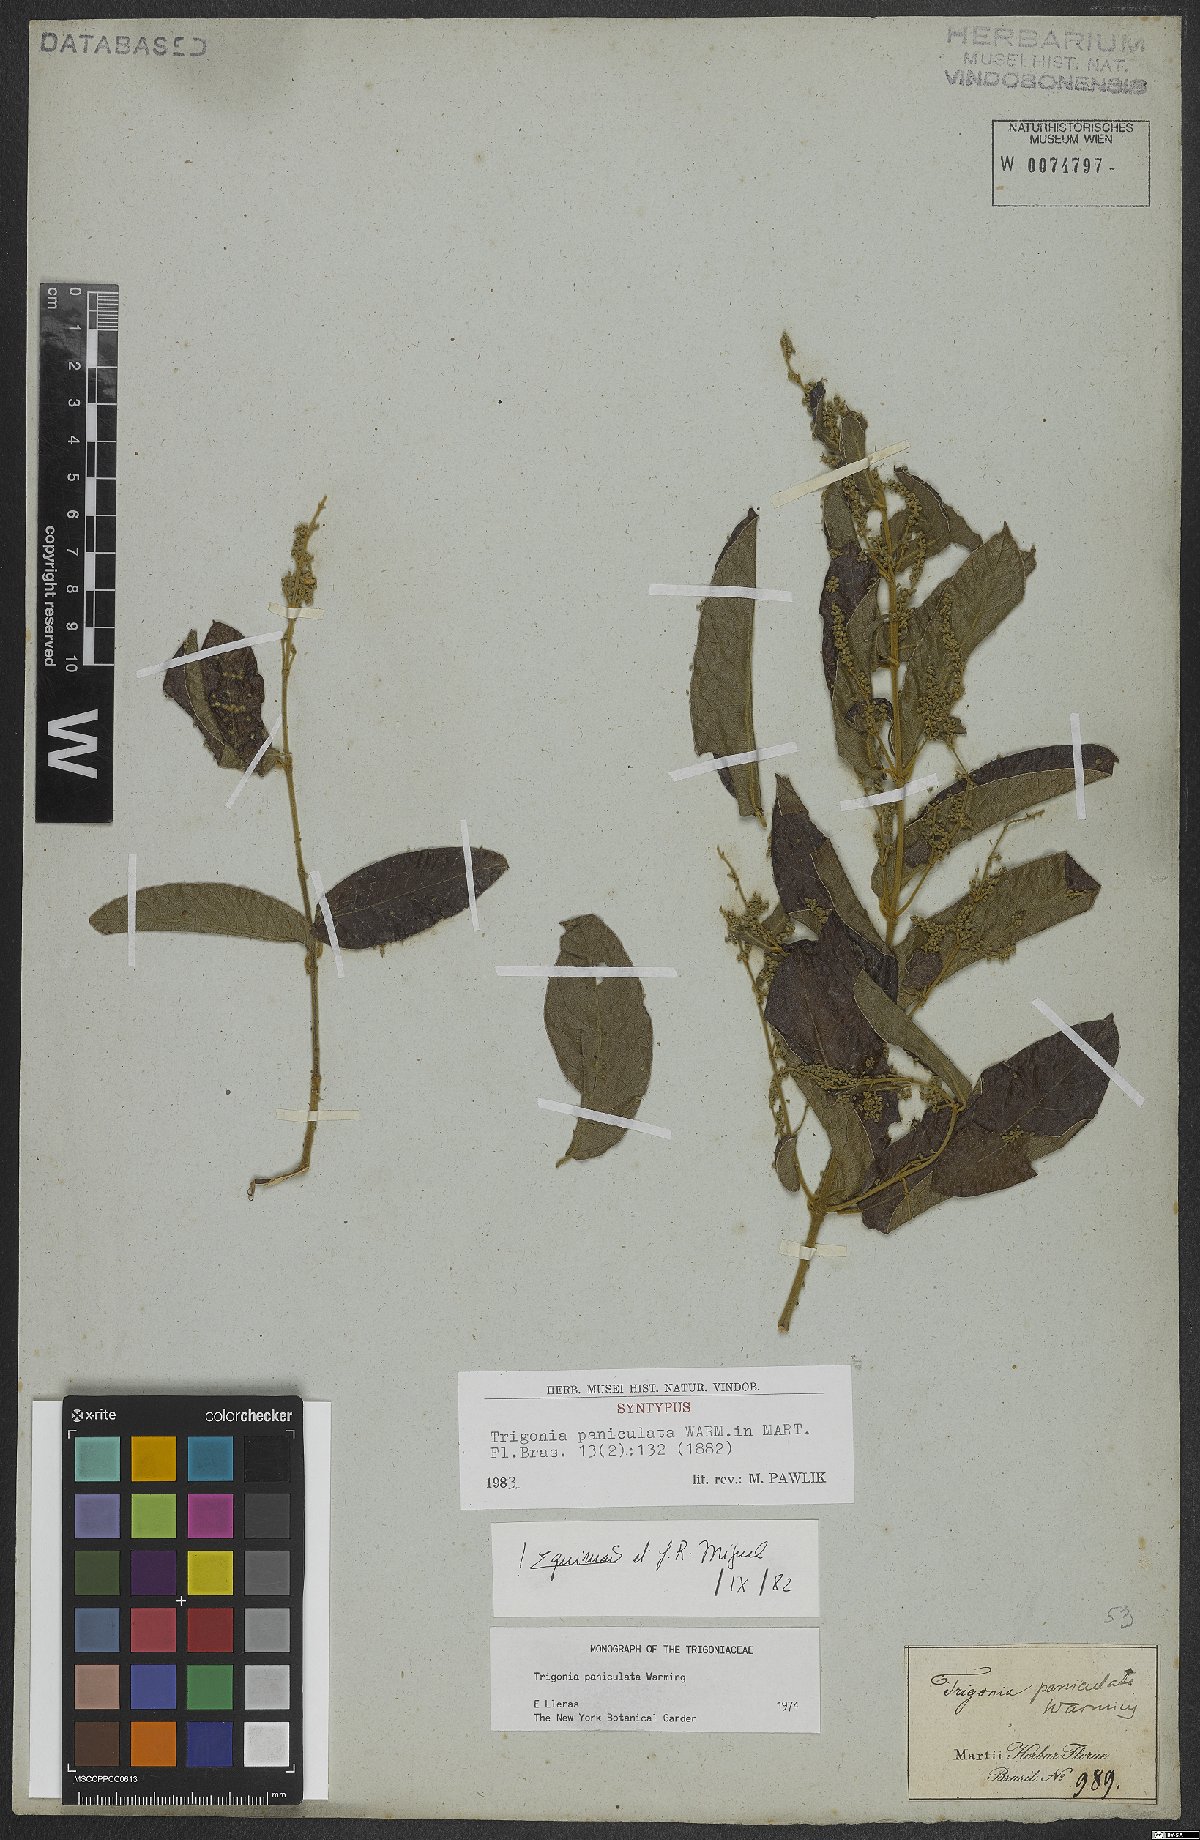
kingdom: Plantae
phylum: Tracheophyta
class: Magnoliopsida
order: Malpighiales
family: Trigoniaceae
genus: Trigonia
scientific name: Trigonia paniculata
